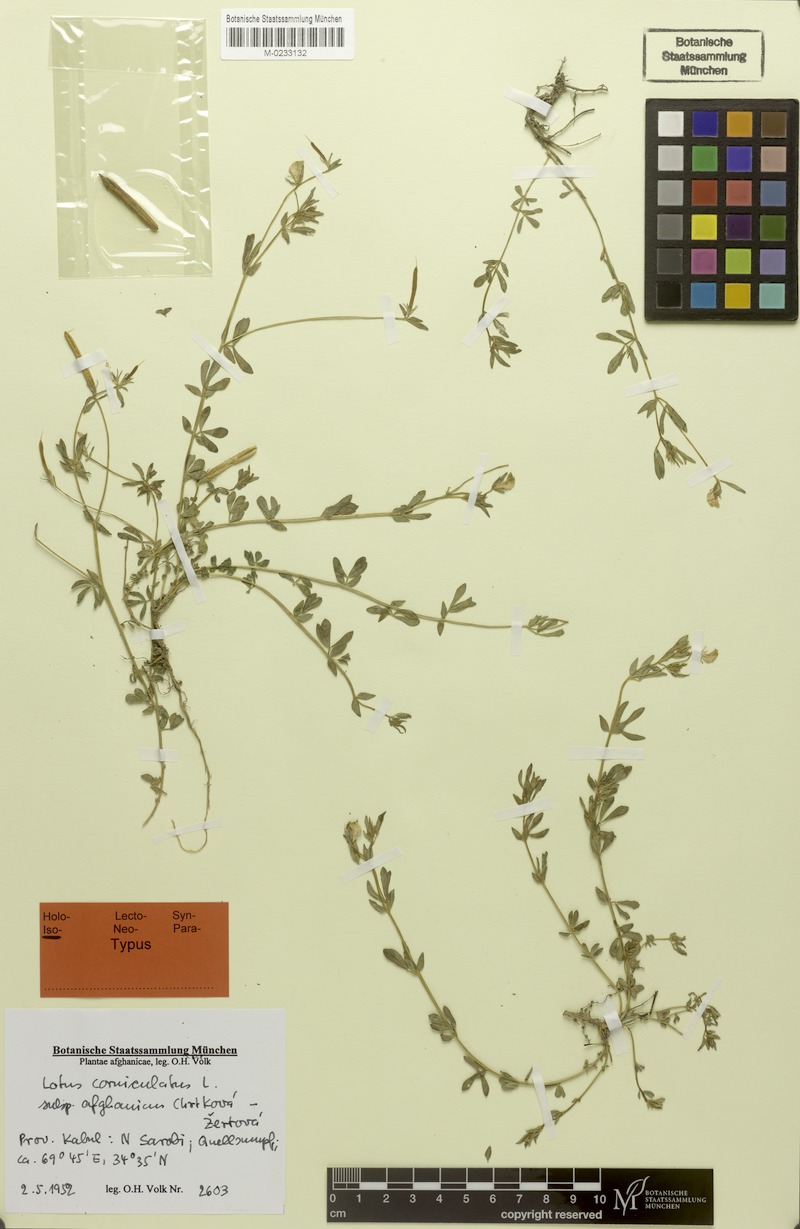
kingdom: Plantae
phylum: Tracheophyta
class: Magnoliopsida
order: Fabales
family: Fabaceae
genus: Lotus
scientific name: Lotus corniculatus
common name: Common bird's-foot-trefoil
